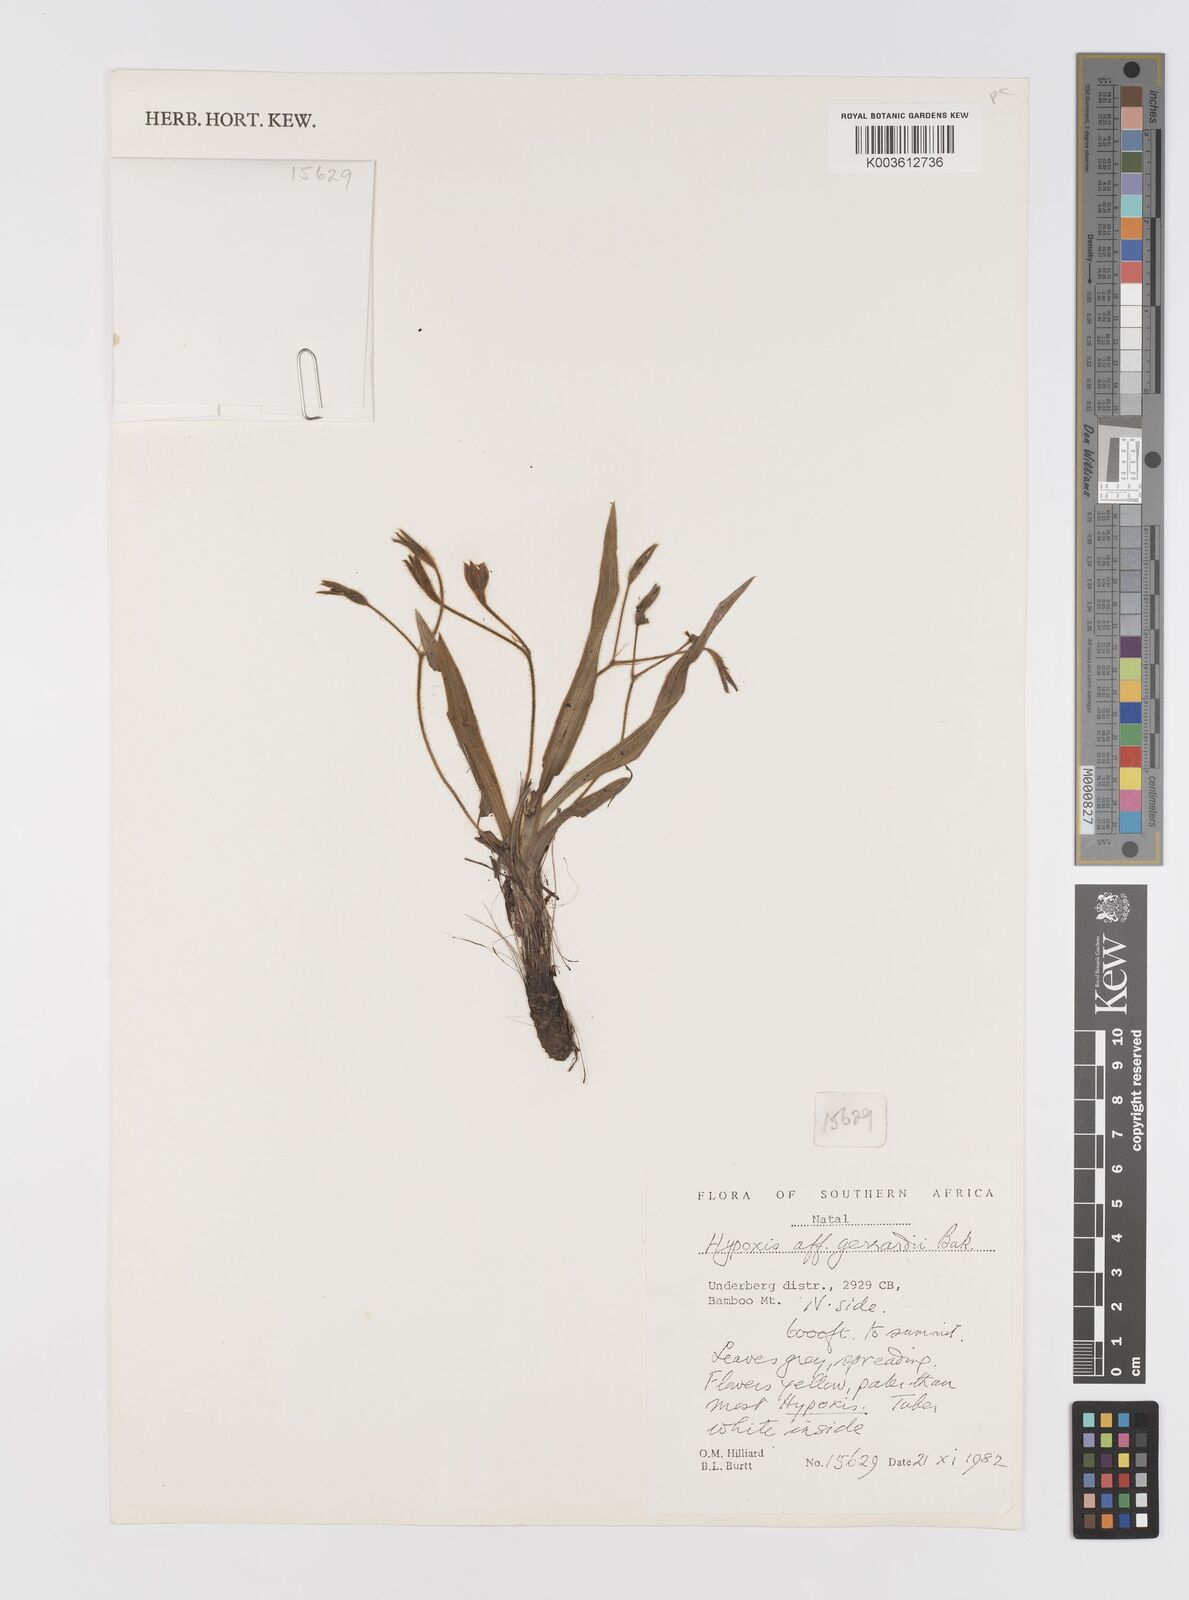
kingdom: Plantae
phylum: Tracheophyta
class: Liliopsida
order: Asparagales
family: Hypoxidaceae
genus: Hypoxis
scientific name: Hypoxis gerrardii
